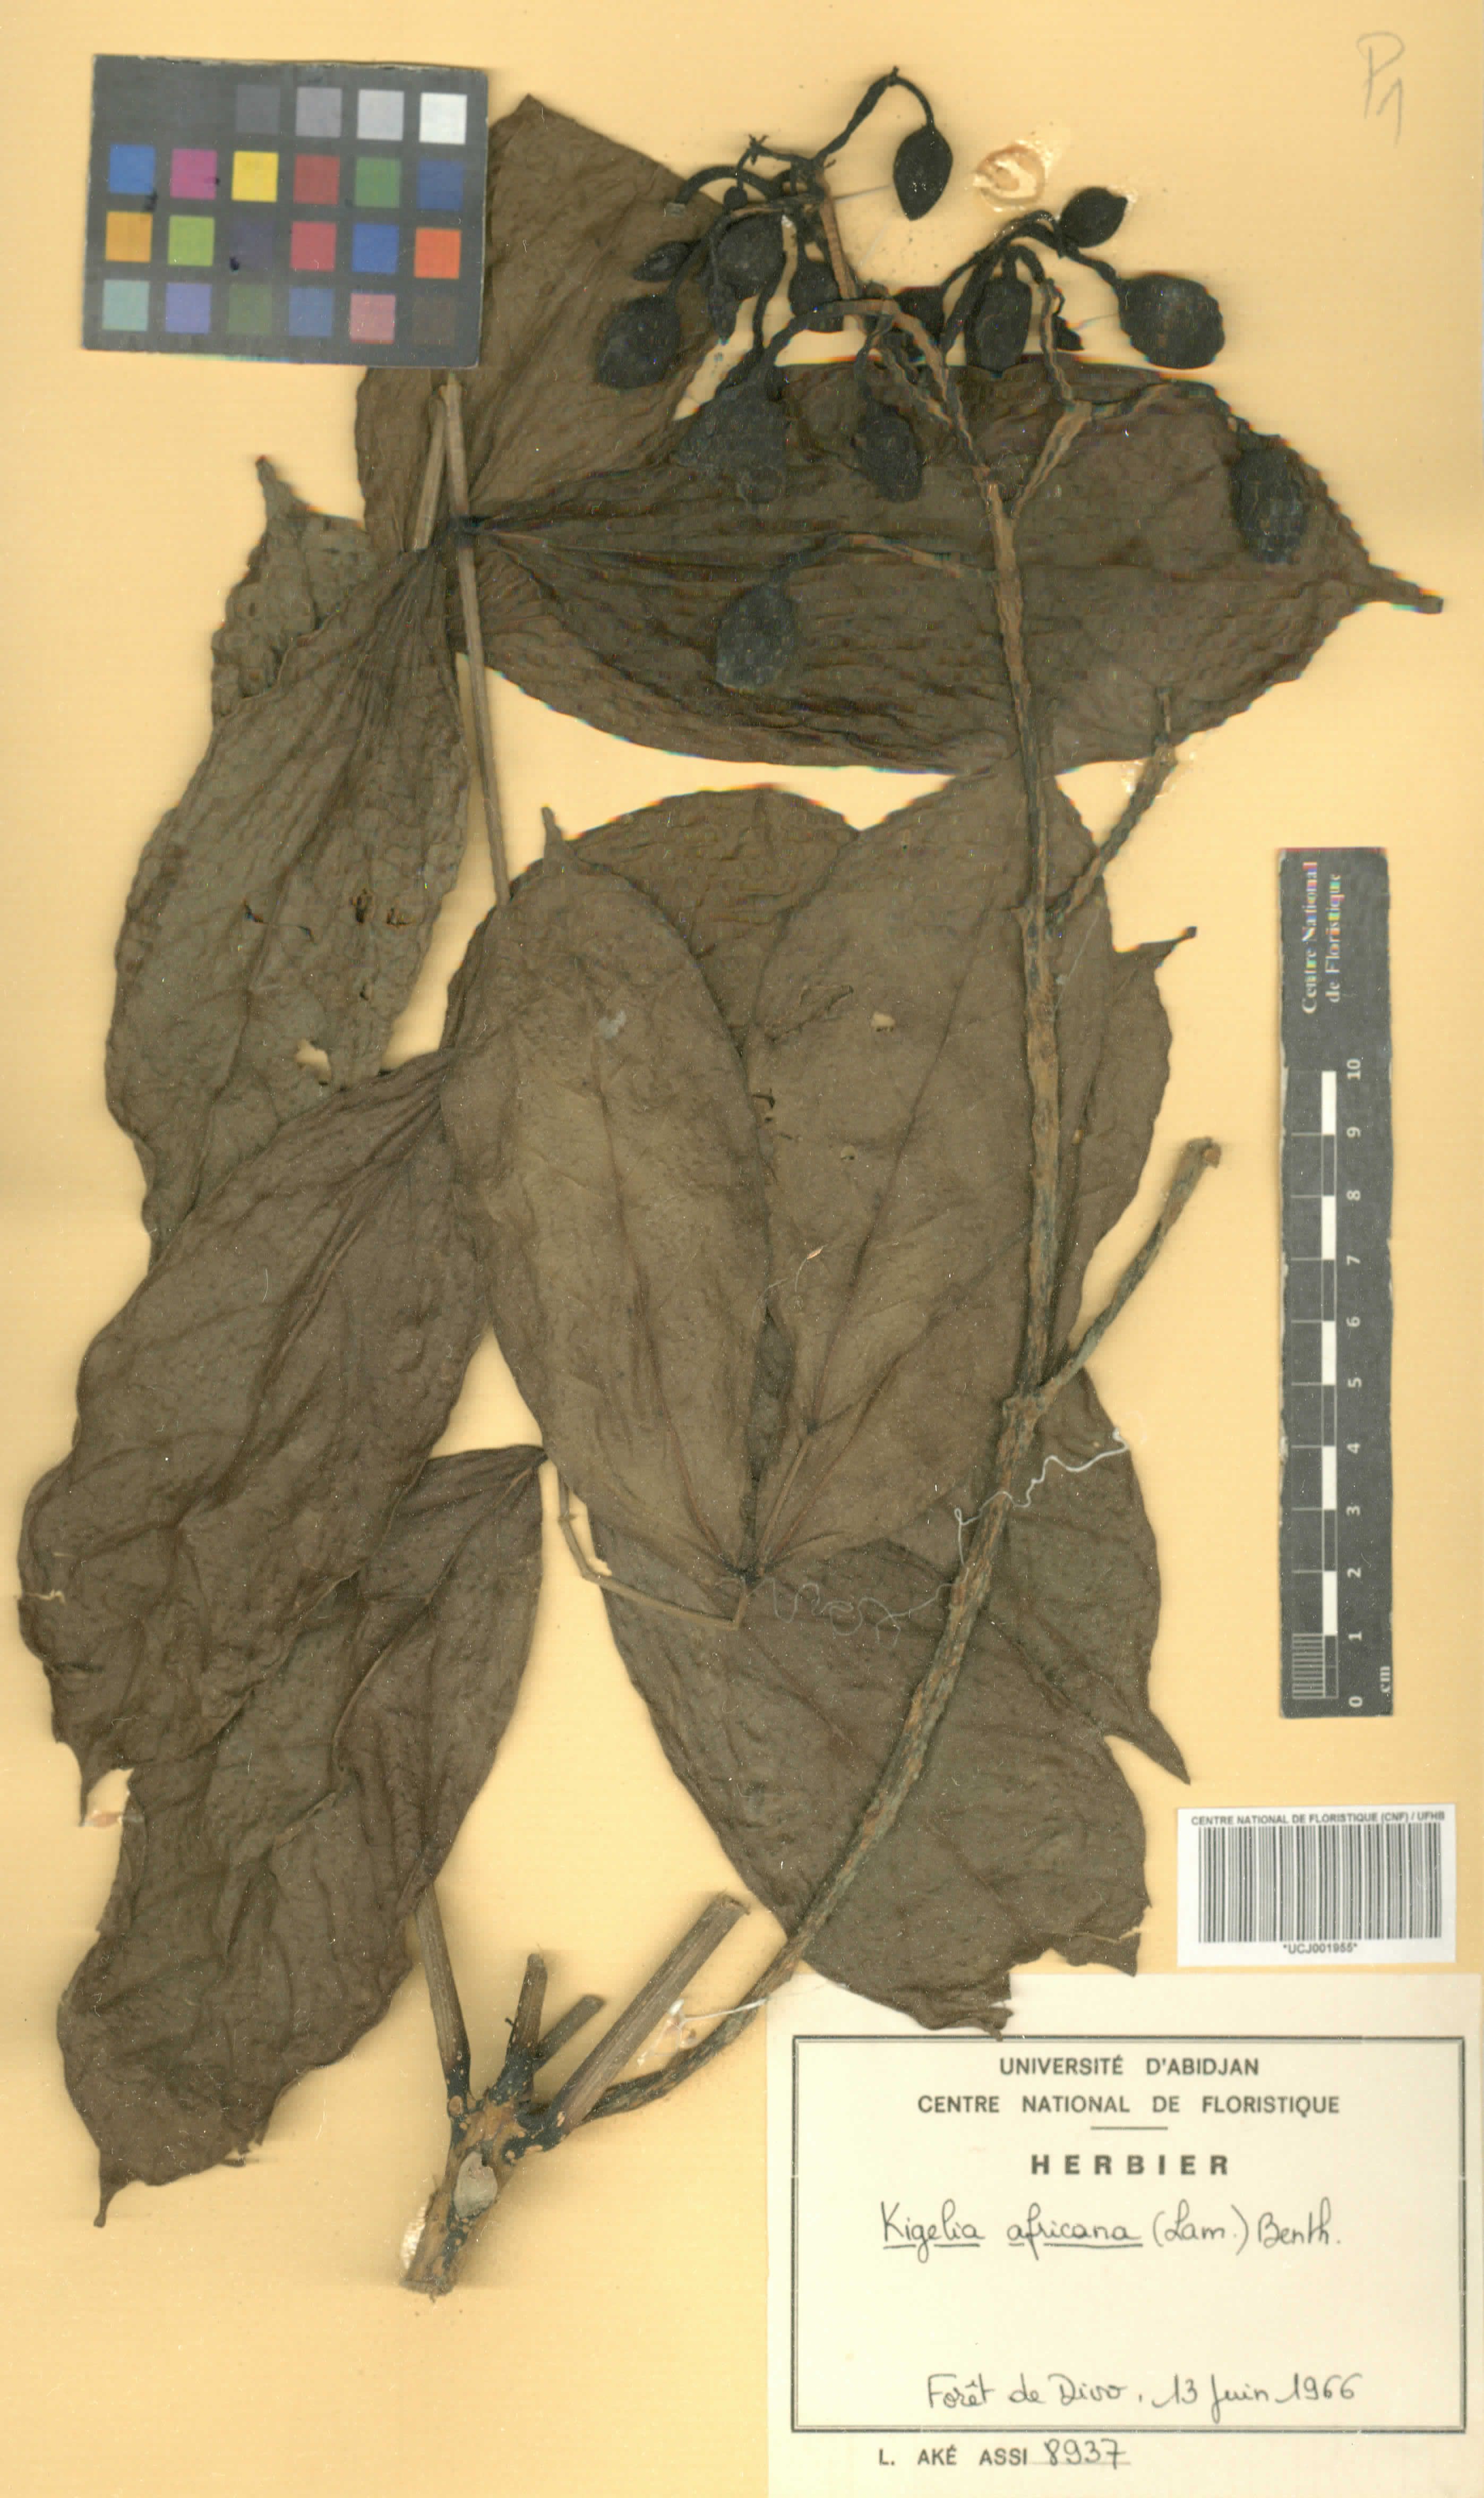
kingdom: Plantae
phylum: Tracheophyta
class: Magnoliopsida
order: Lamiales
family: Bignoniaceae
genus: Kigelia
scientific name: Kigelia africana
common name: Sausage tree
